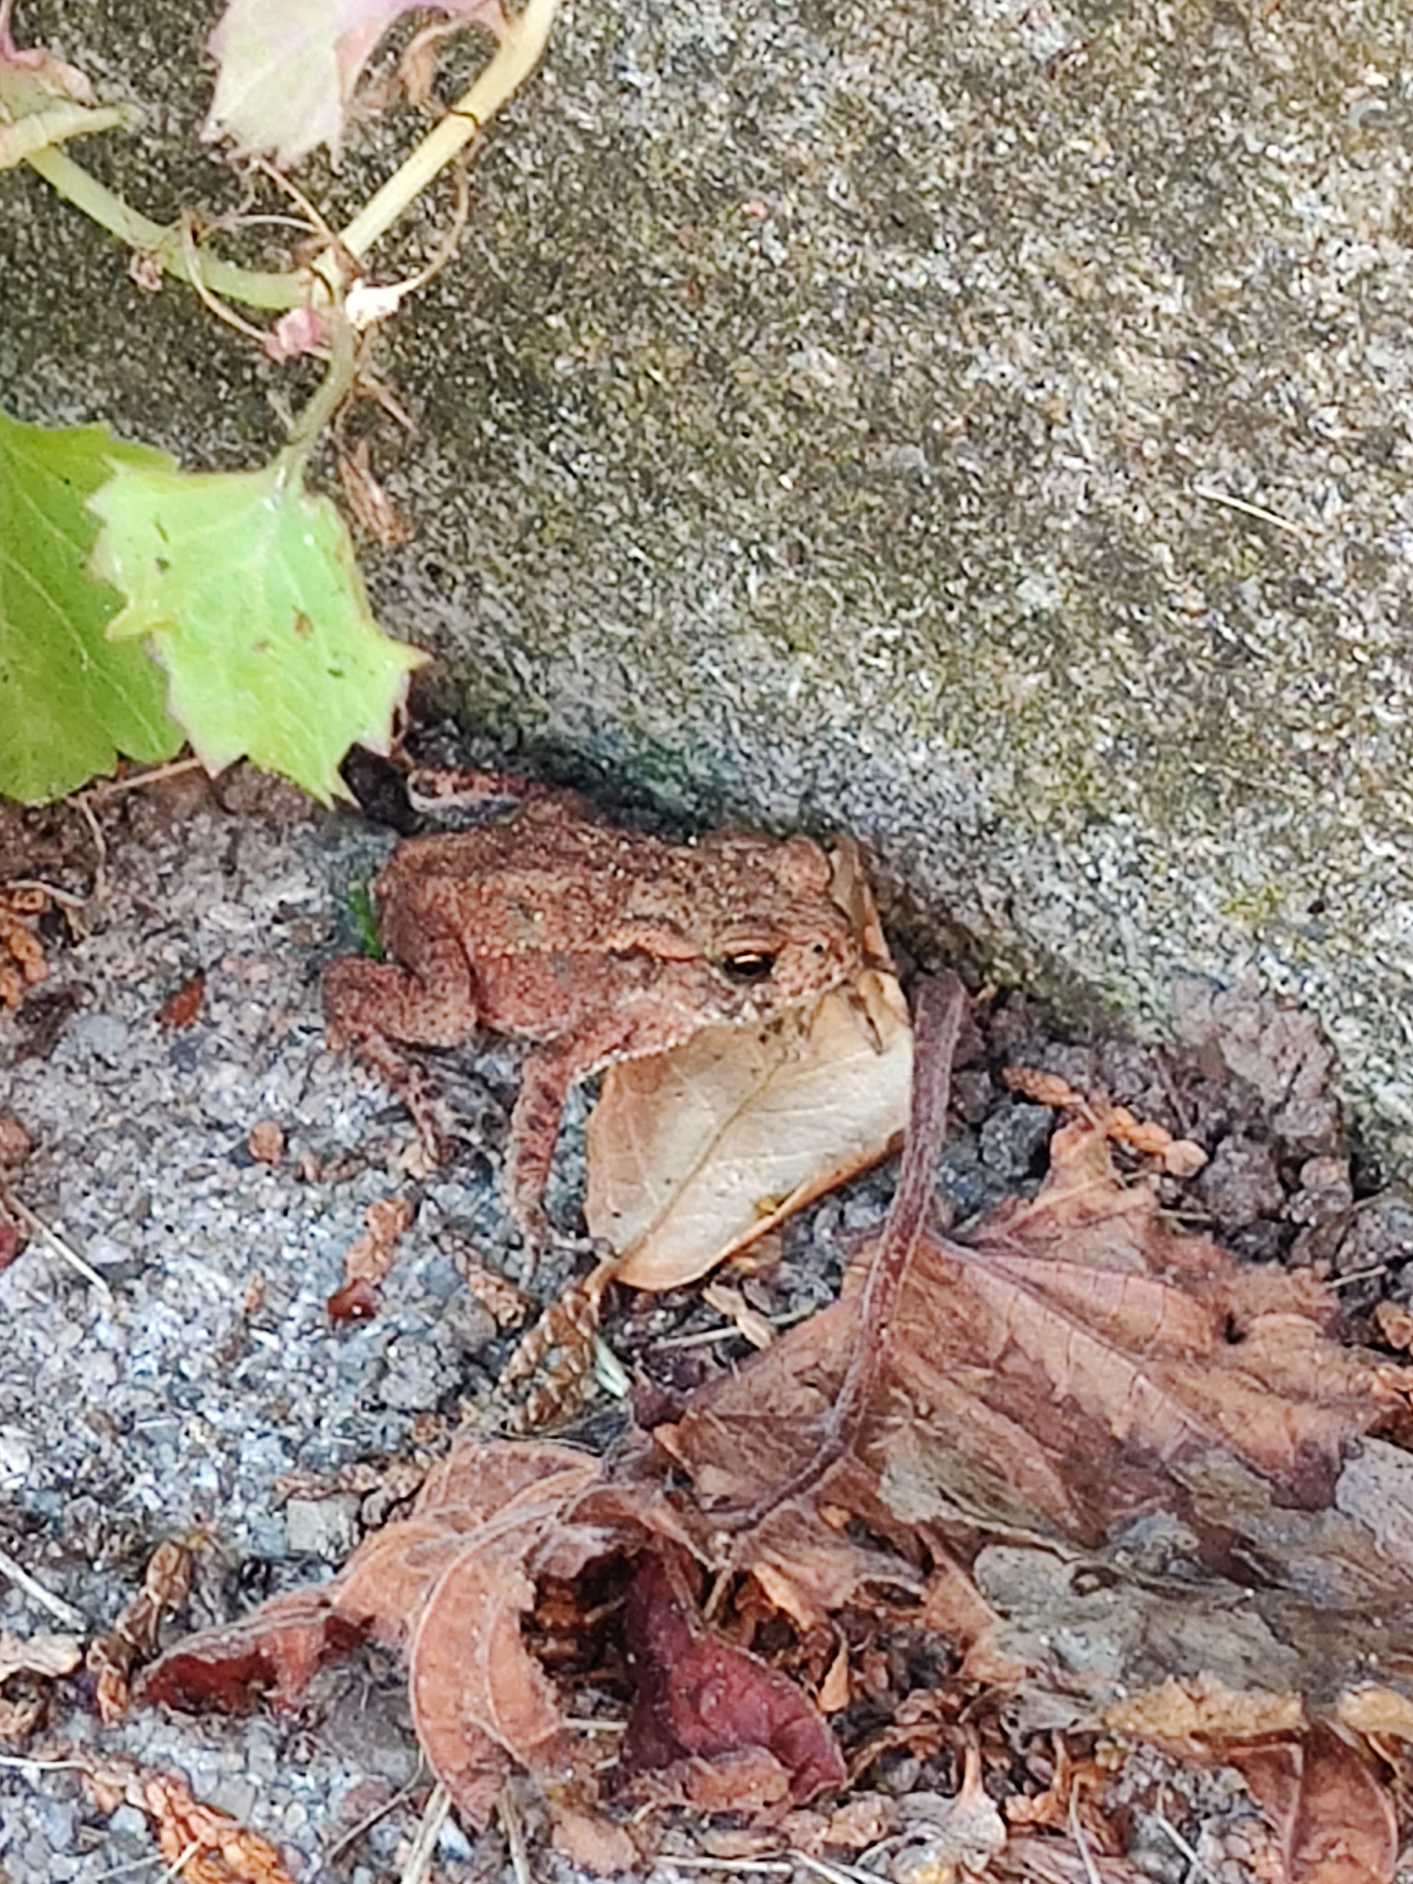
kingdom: Animalia
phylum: Chordata
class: Amphibia
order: Anura
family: Bufonidae
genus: Bufo
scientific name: Bufo bufo
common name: Skrubtudse
